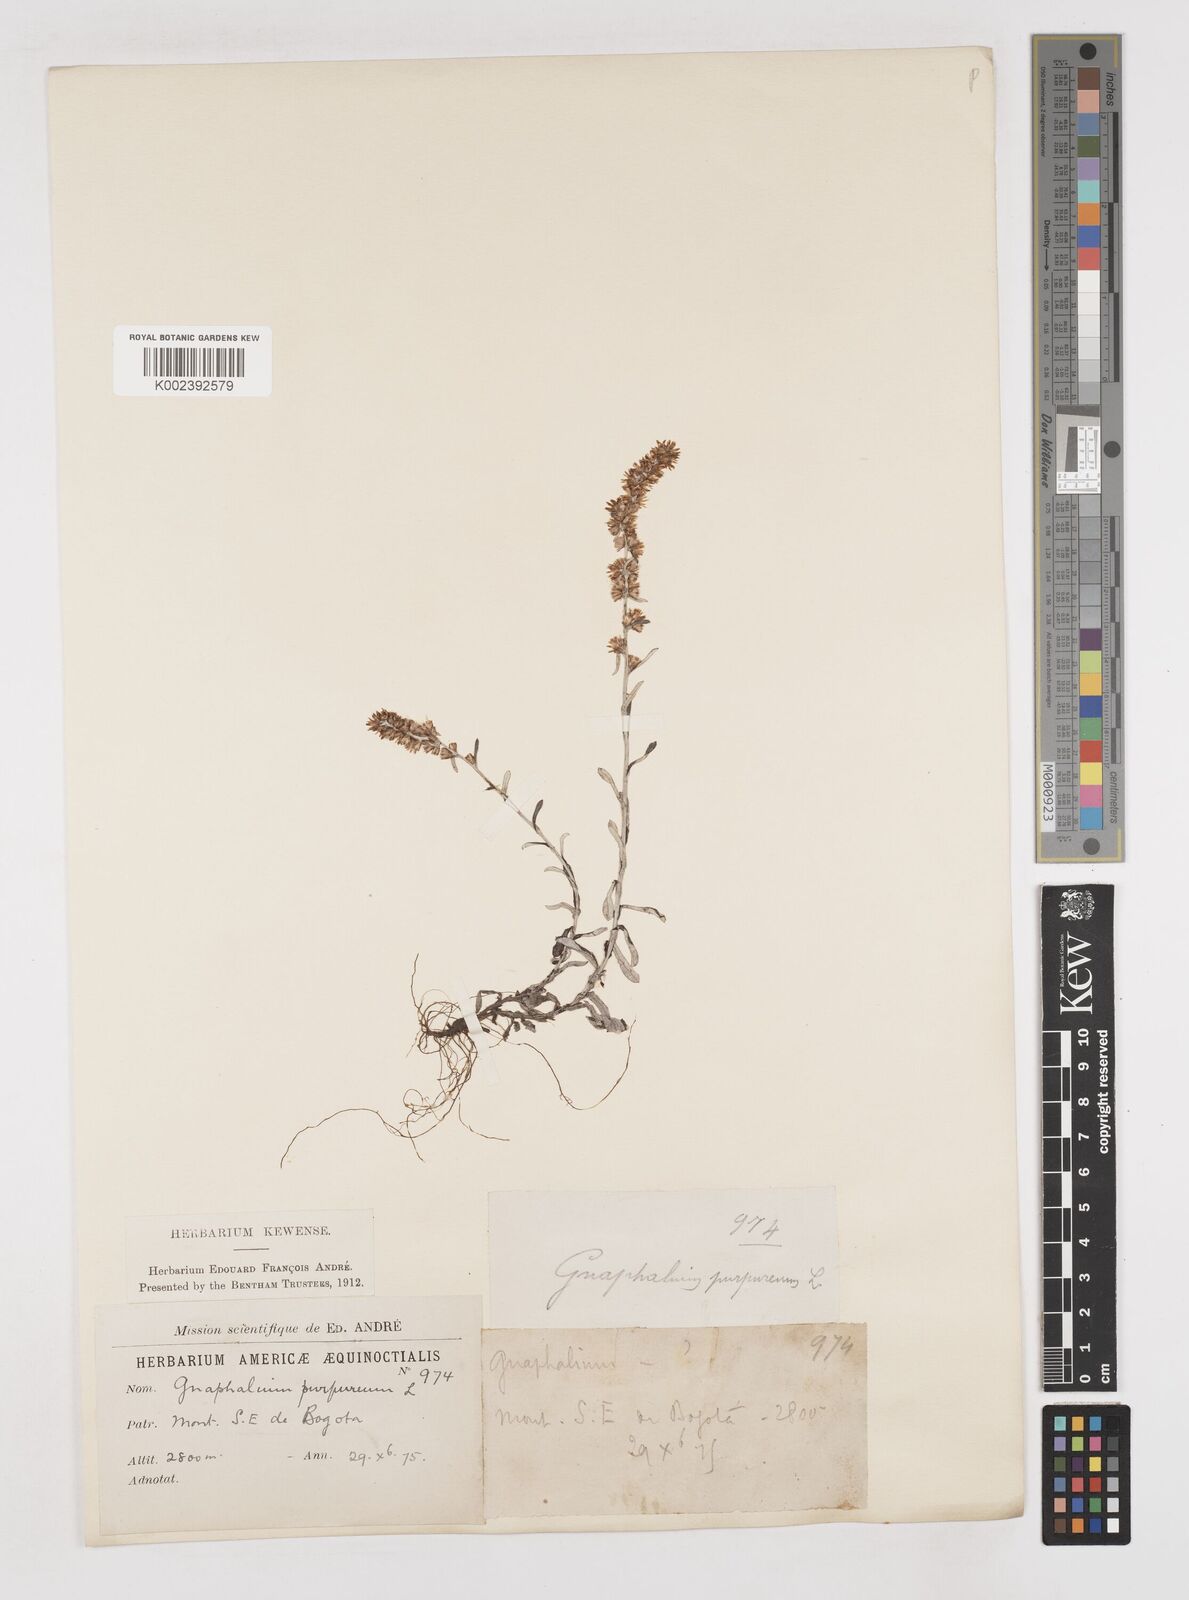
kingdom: Plantae
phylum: Tracheophyta
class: Magnoliopsida
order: Asterales
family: Asteraceae
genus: Pseudognaphalium
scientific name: Pseudognaphalium purpurascens
